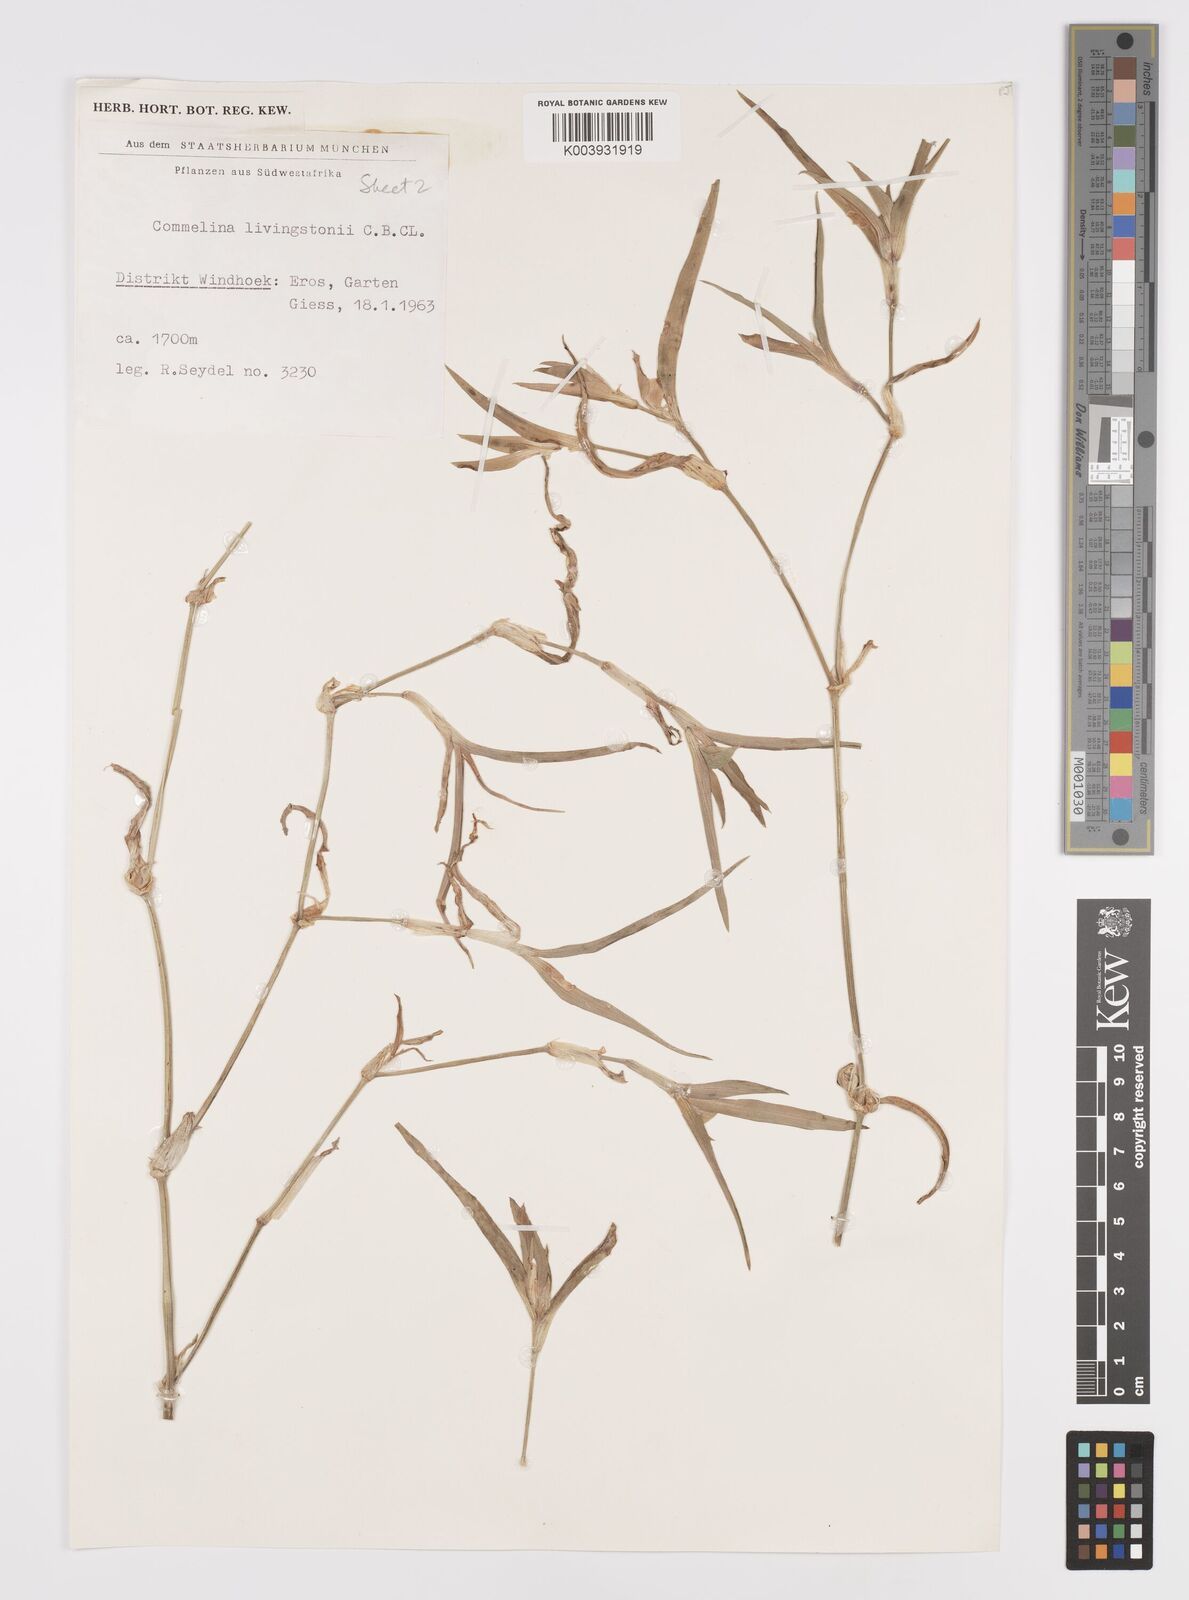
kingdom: Plantae
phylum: Tracheophyta
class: Liliopsida
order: Commelinales
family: Commelinaceae
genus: Commelina
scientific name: Commelina erecta
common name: Blousel blommetjie
